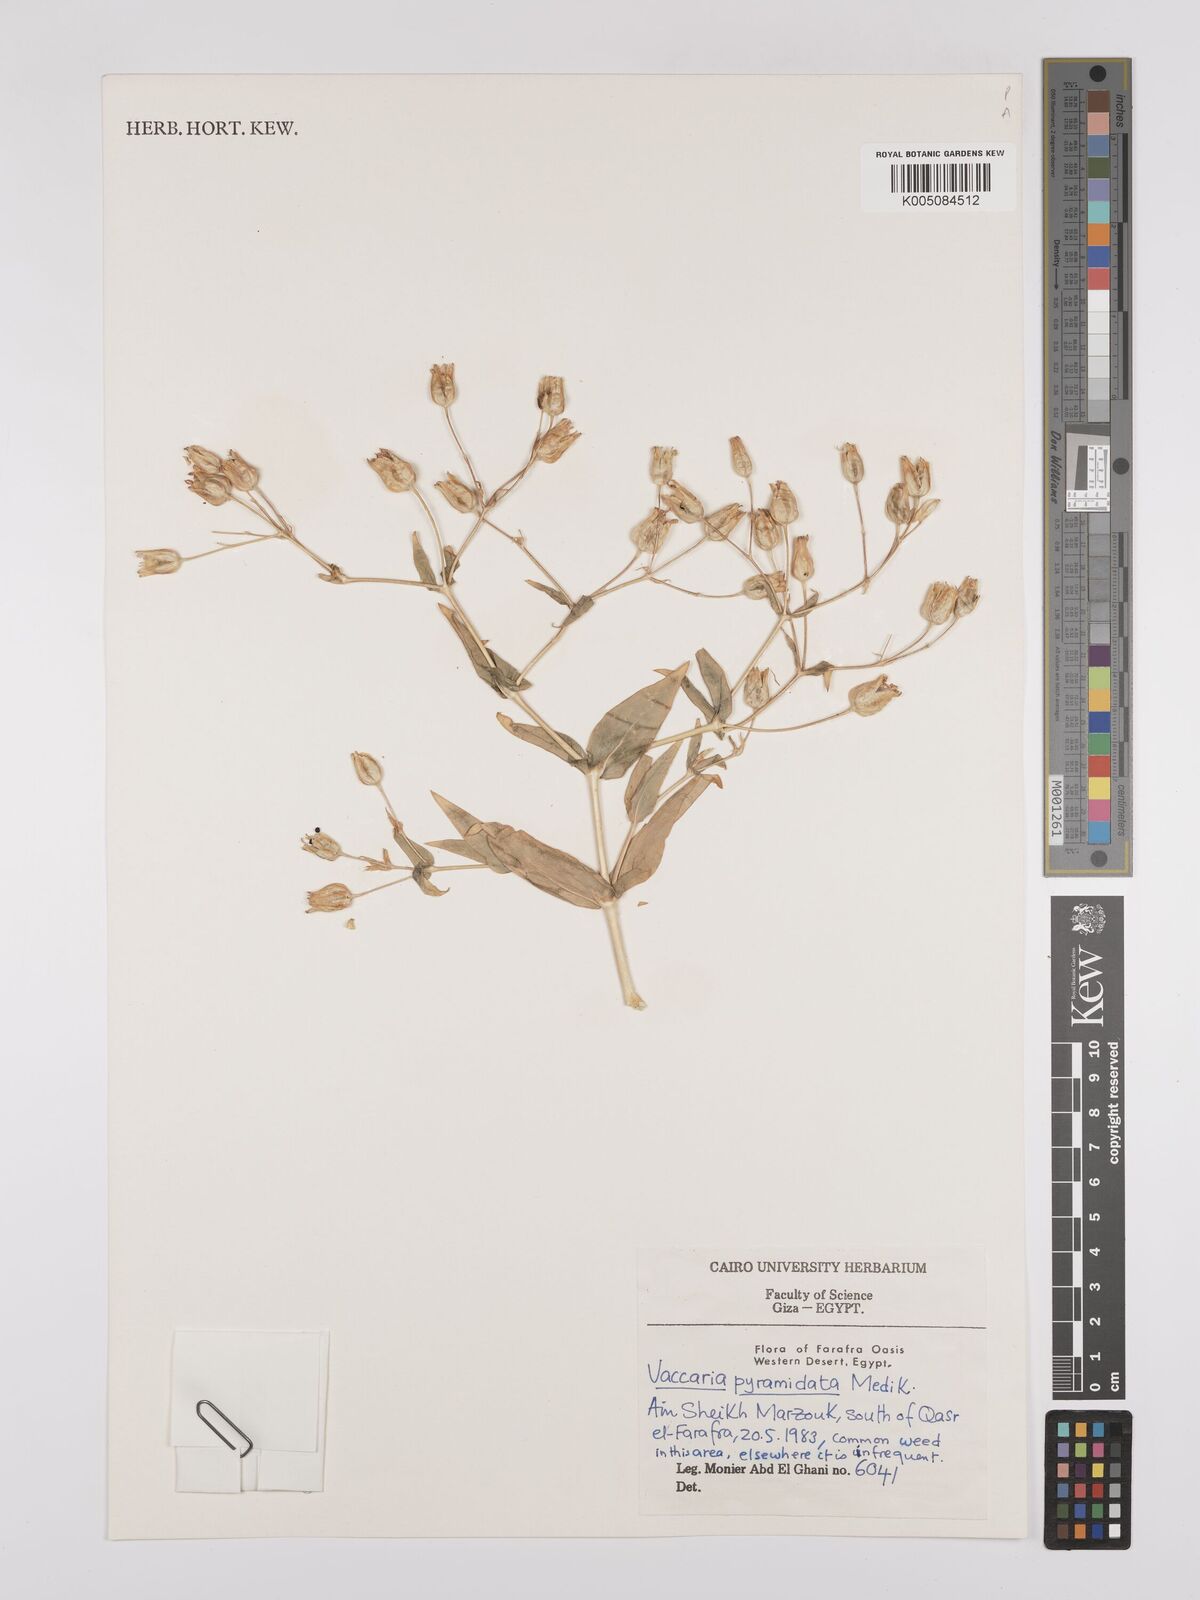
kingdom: Plantae
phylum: Tracheophyta
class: Magnoliopsida
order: Caryophyllales
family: Caryophyllaceae
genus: Gypsophila
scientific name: Gypsophila vaccaria
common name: Cow soapwort
